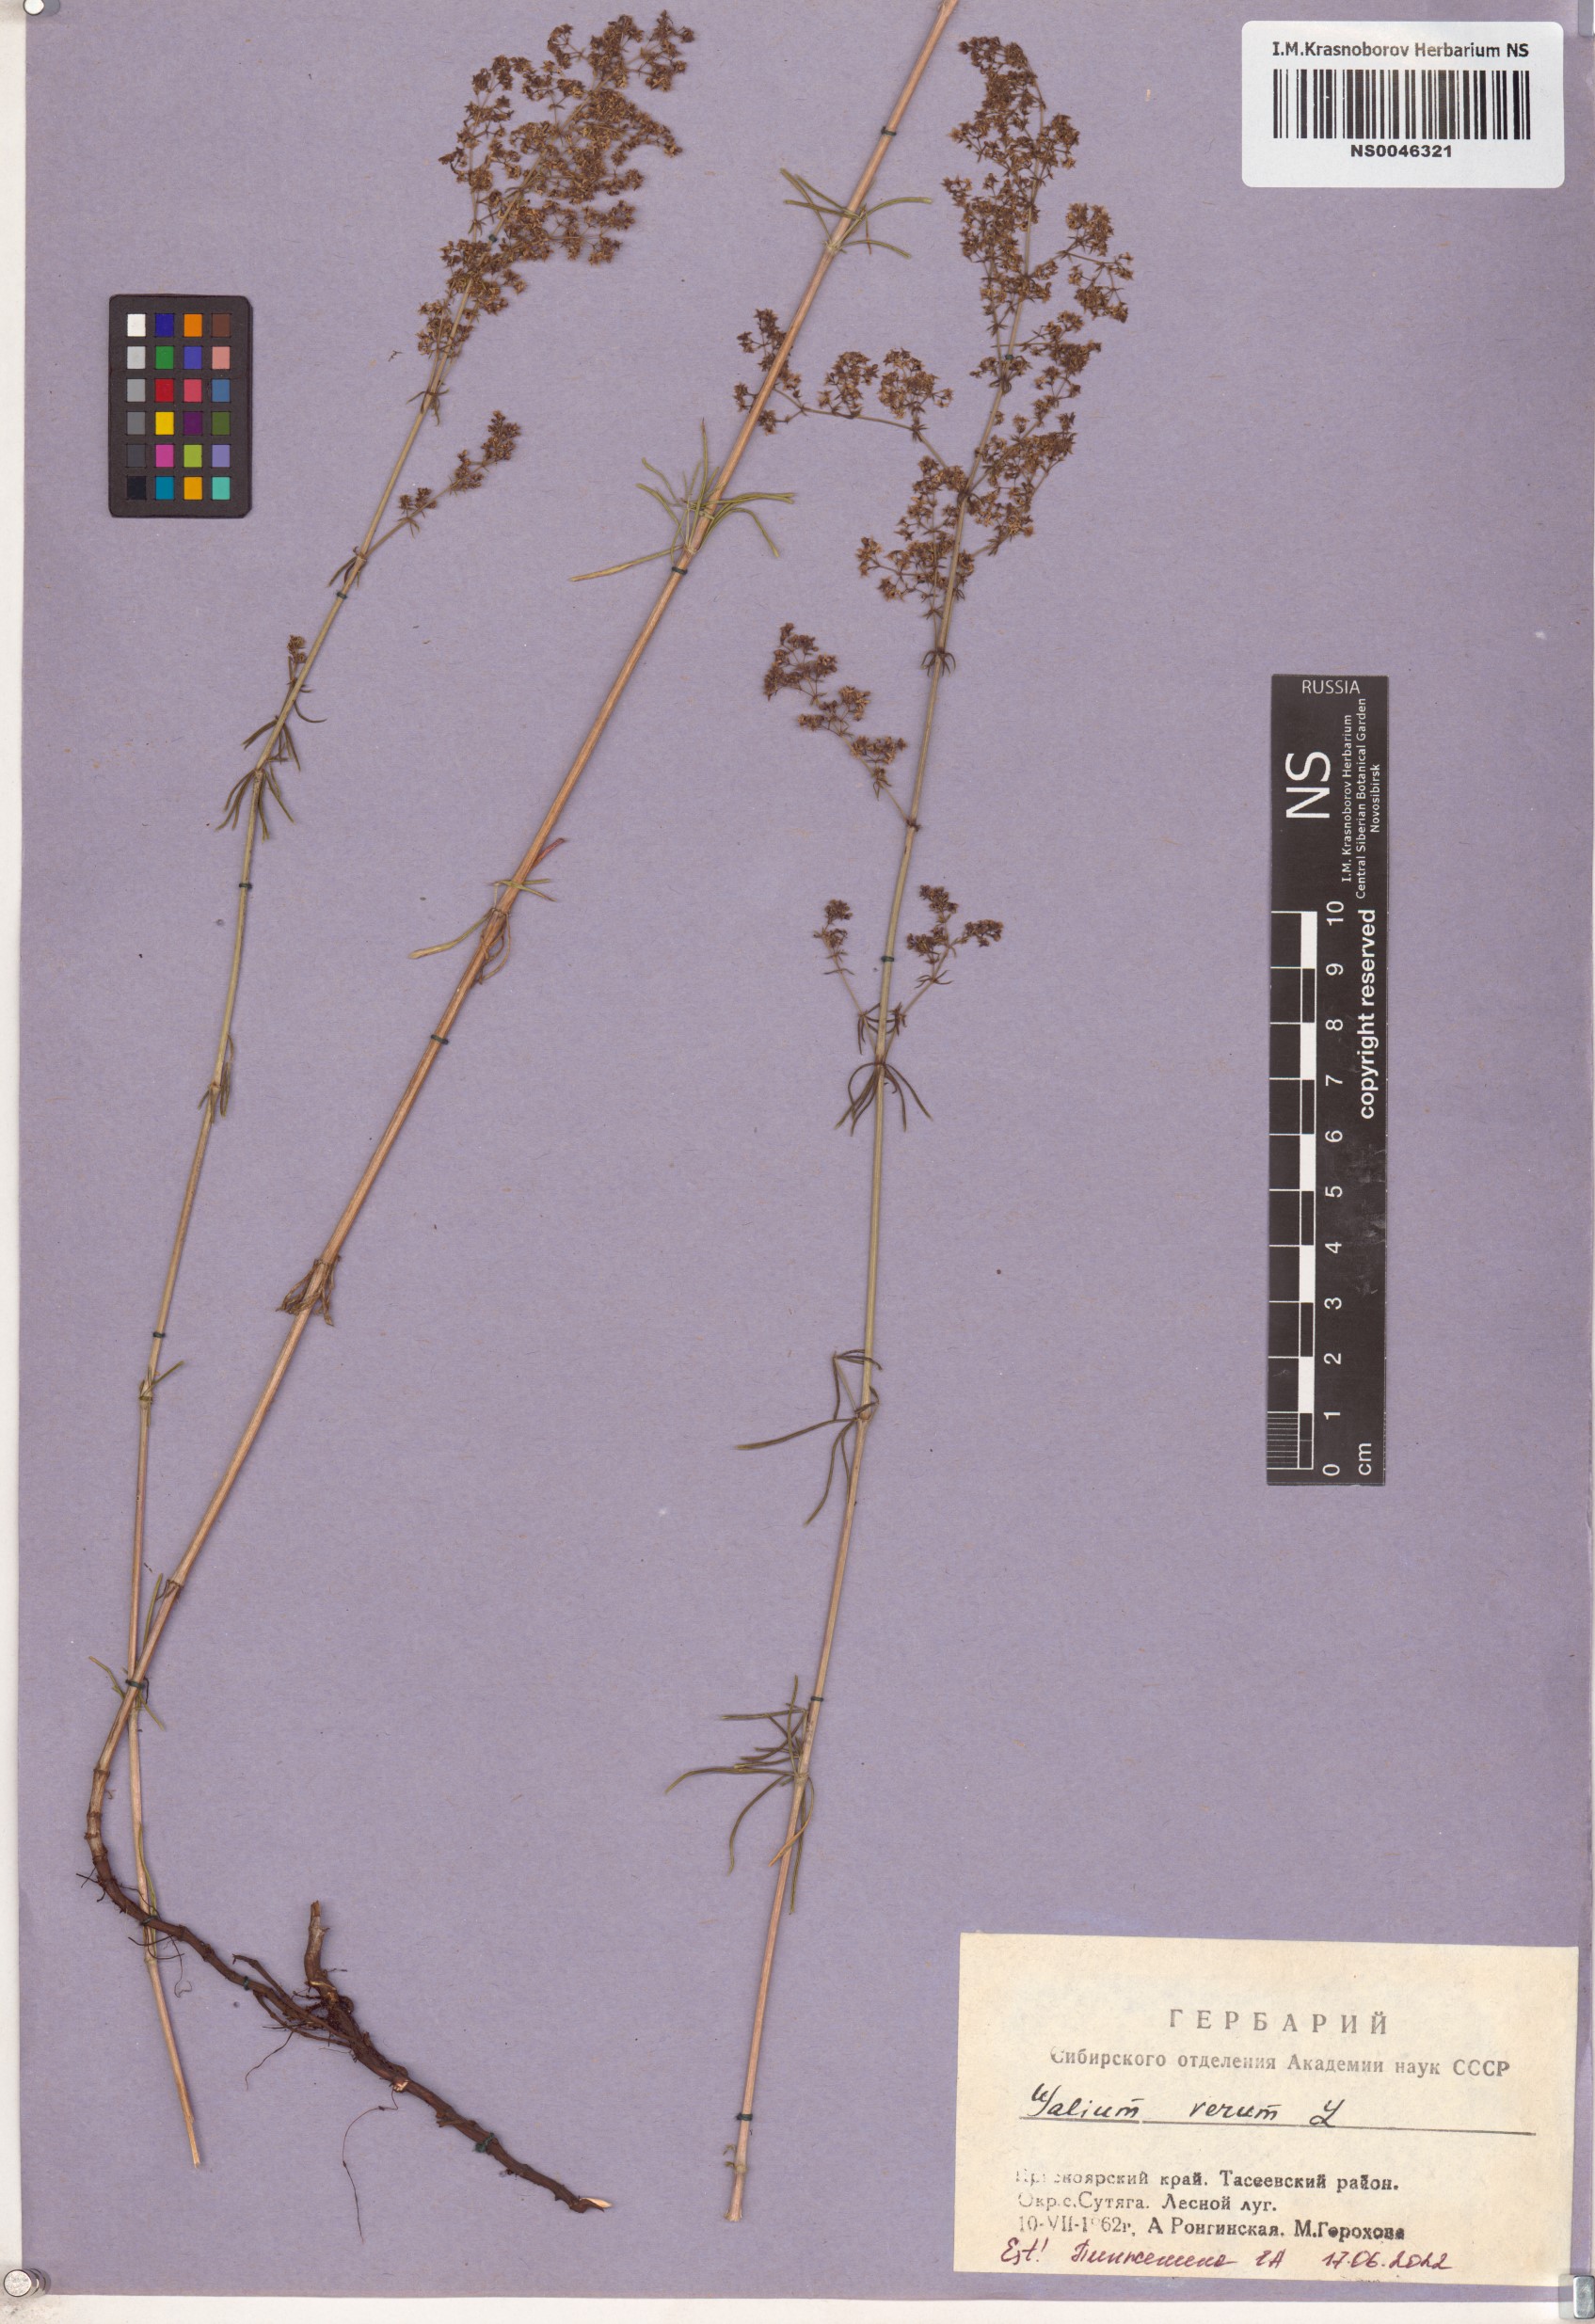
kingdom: Plantae
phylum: Tracheophyta
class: Magnoliopsida
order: Gentianales
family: Rubiaceae
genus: Galium
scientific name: Galium verum
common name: Lady's bedstraw
